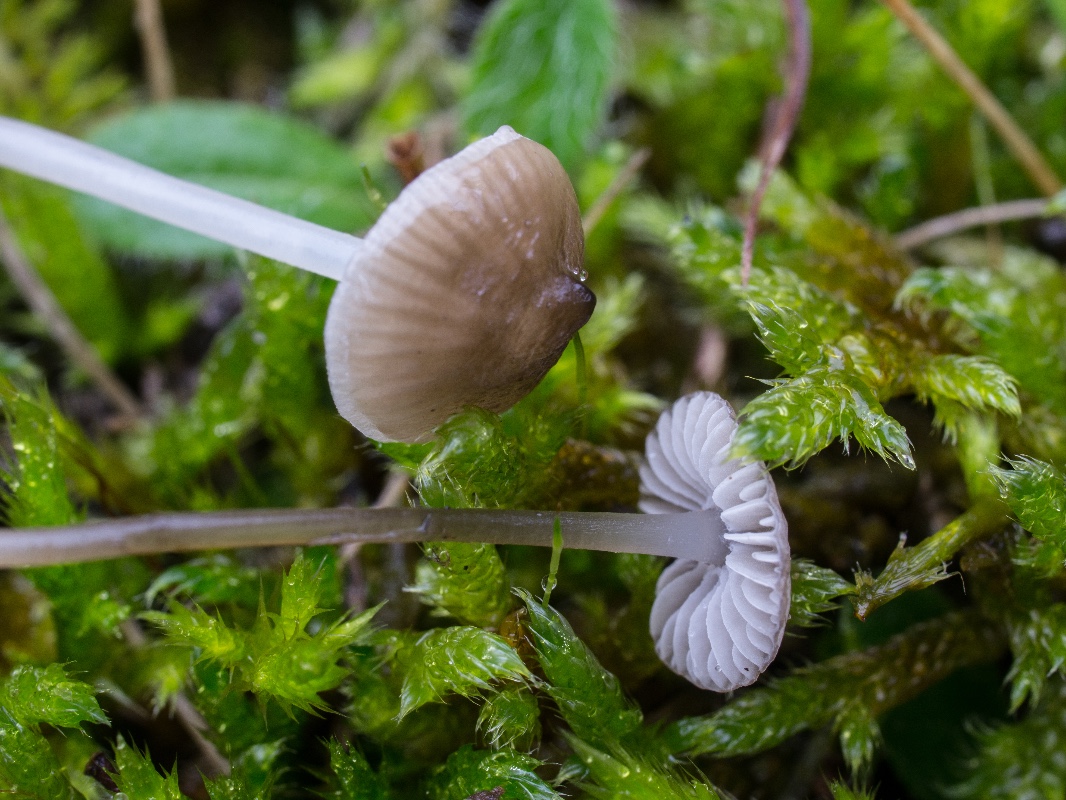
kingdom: Fungi
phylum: Basidiomycota
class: Agaricomycetes
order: Agaricales
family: Porotheleaceae
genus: Phloeomana
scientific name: Phloeomana atropapillata
